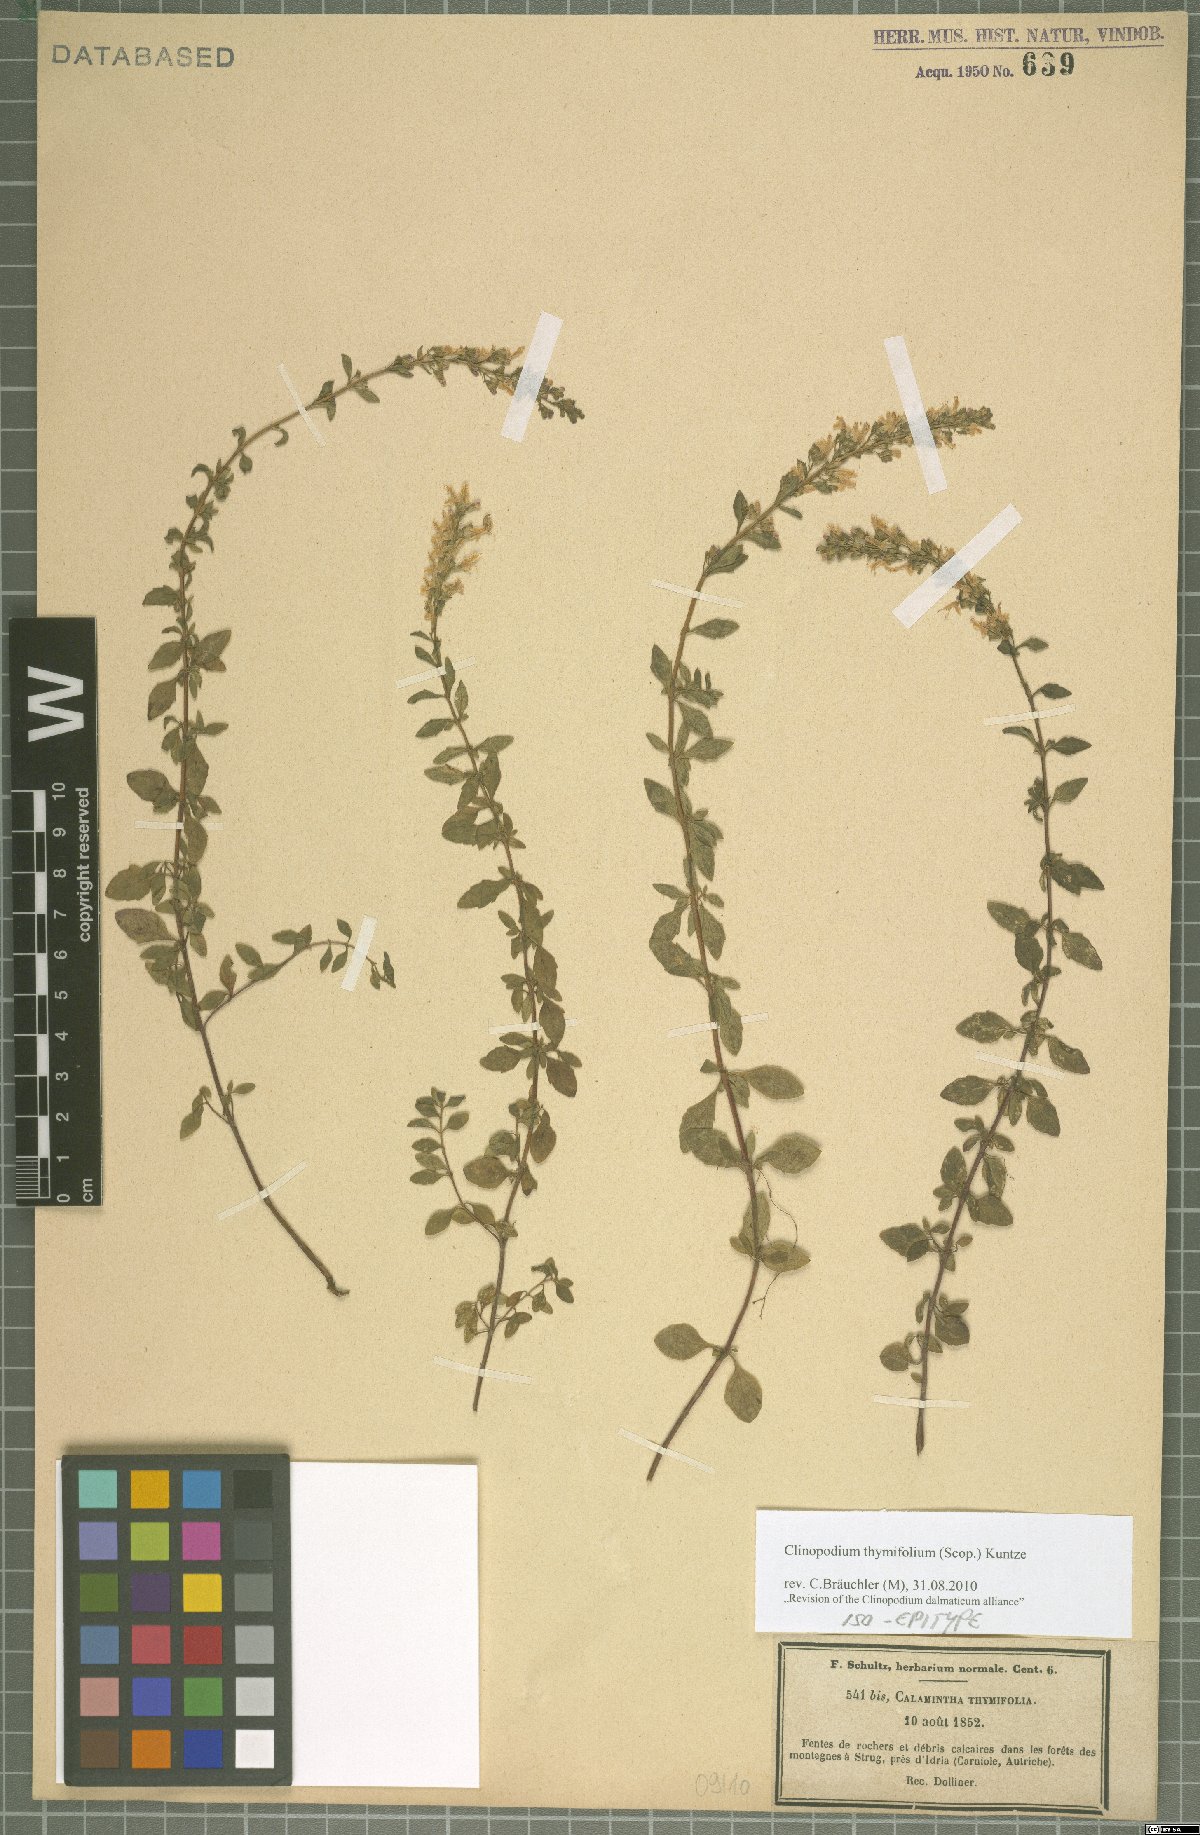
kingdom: Plantae
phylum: Tracheophyta
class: Magnoliopsida
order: Lamiales
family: Lamiaceae
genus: Clinopodium
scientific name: Clinopodium hostii
